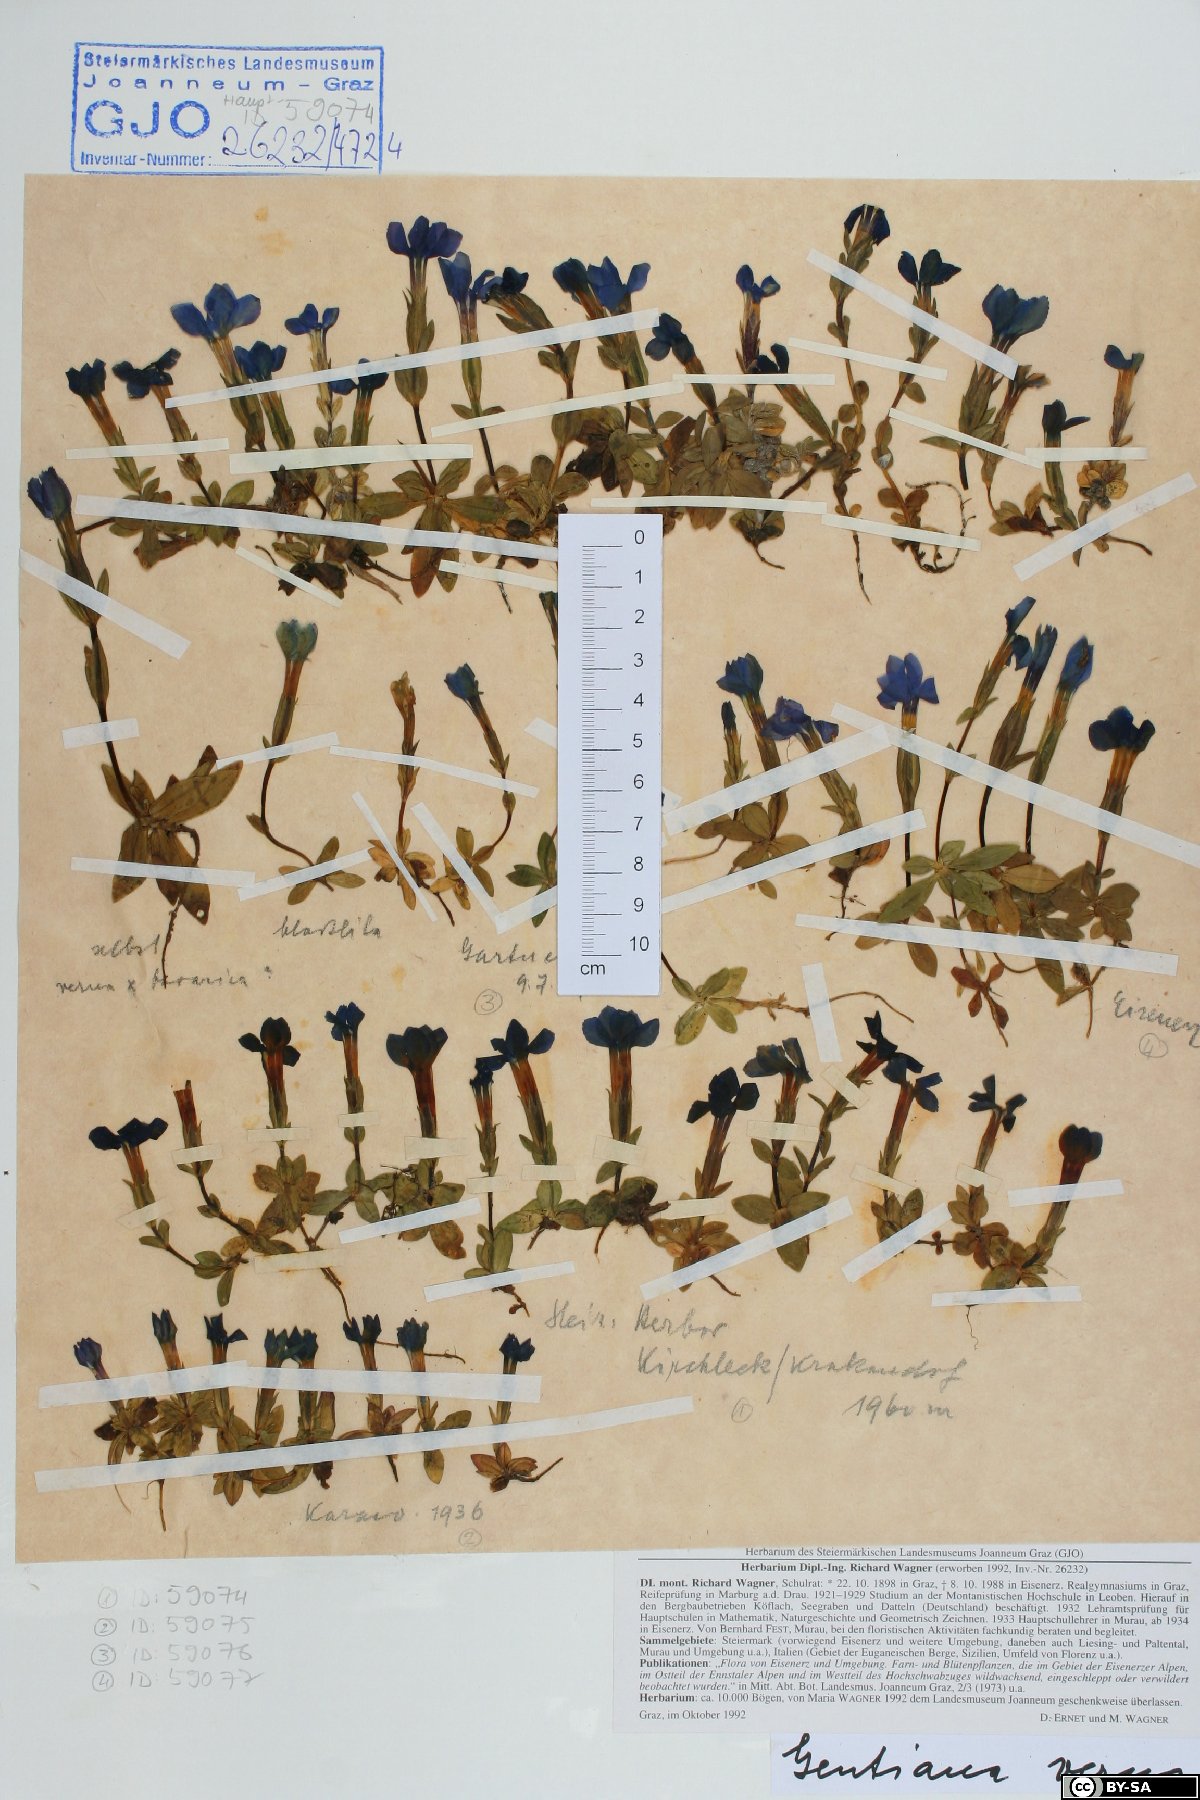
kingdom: Plantae
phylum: Tracheophyta
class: Magnoliopsida
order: Gentianales
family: Gentianaceae
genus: Gentiana
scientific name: Gentiana verna
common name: Spring gentian
